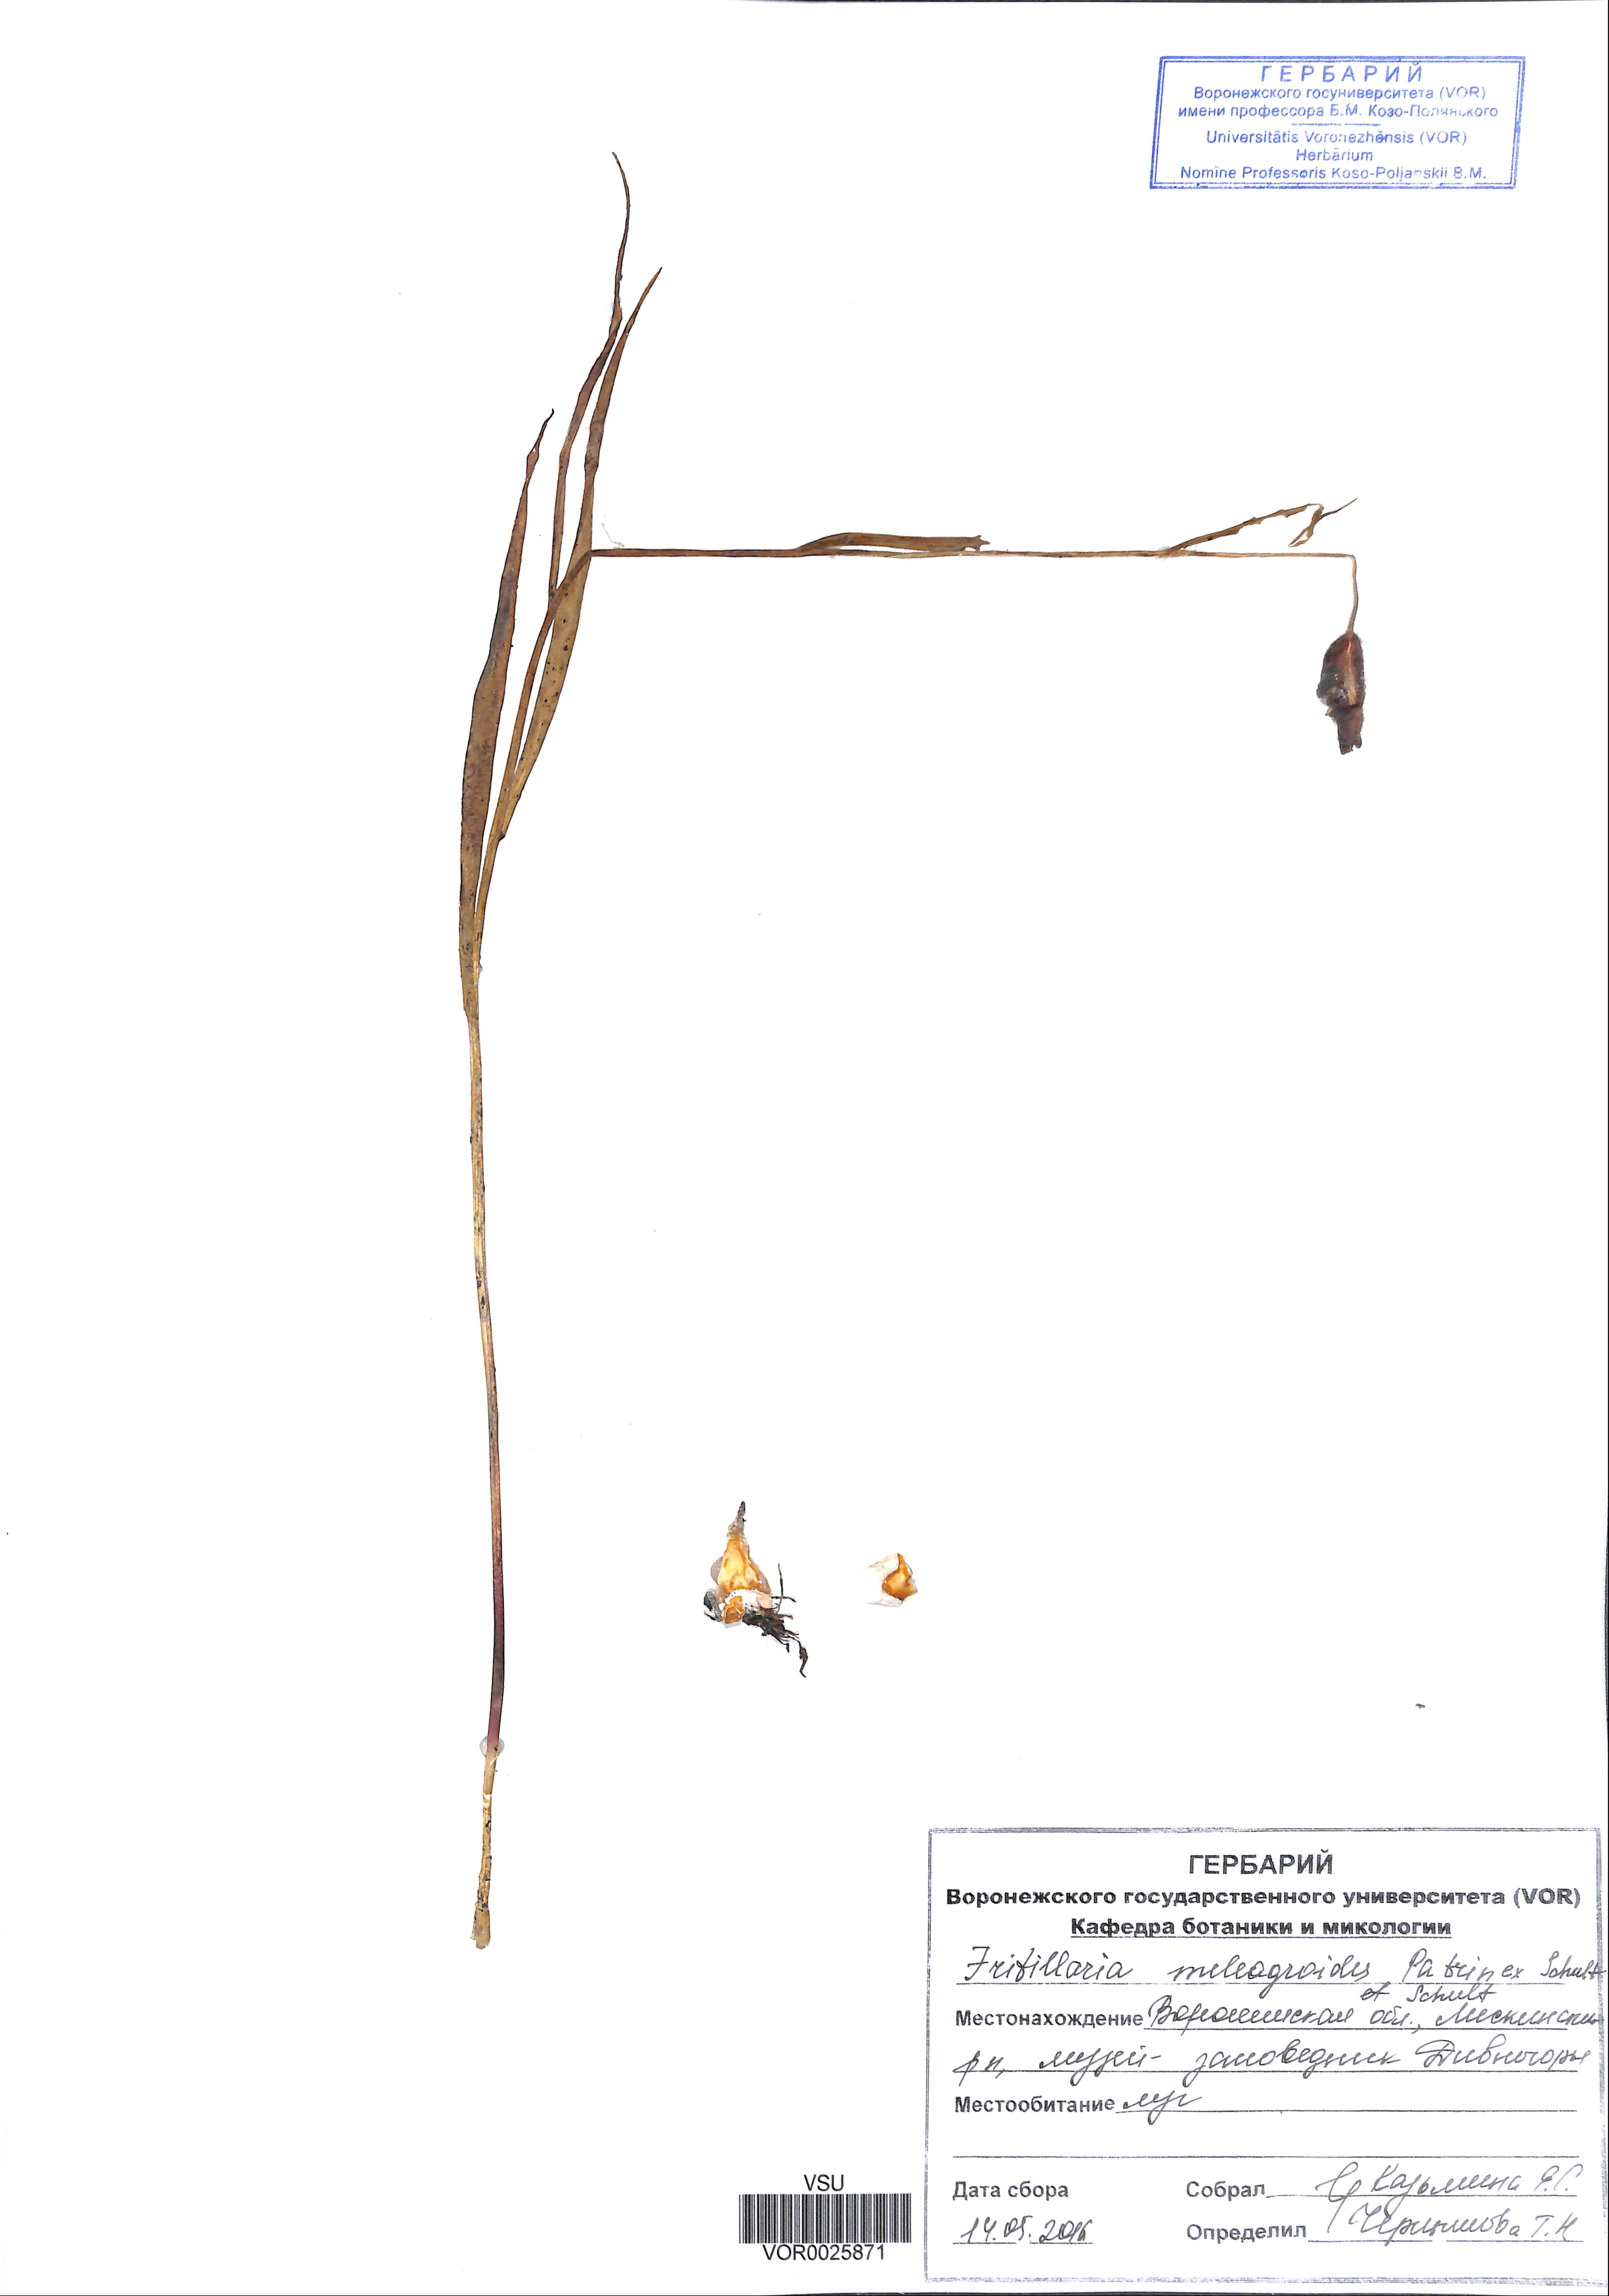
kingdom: Plantae
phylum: Tracheophyta
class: Liliopsida
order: Liliales
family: Liliaceae
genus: Fritillaria
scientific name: Fritillaria meleagroides
